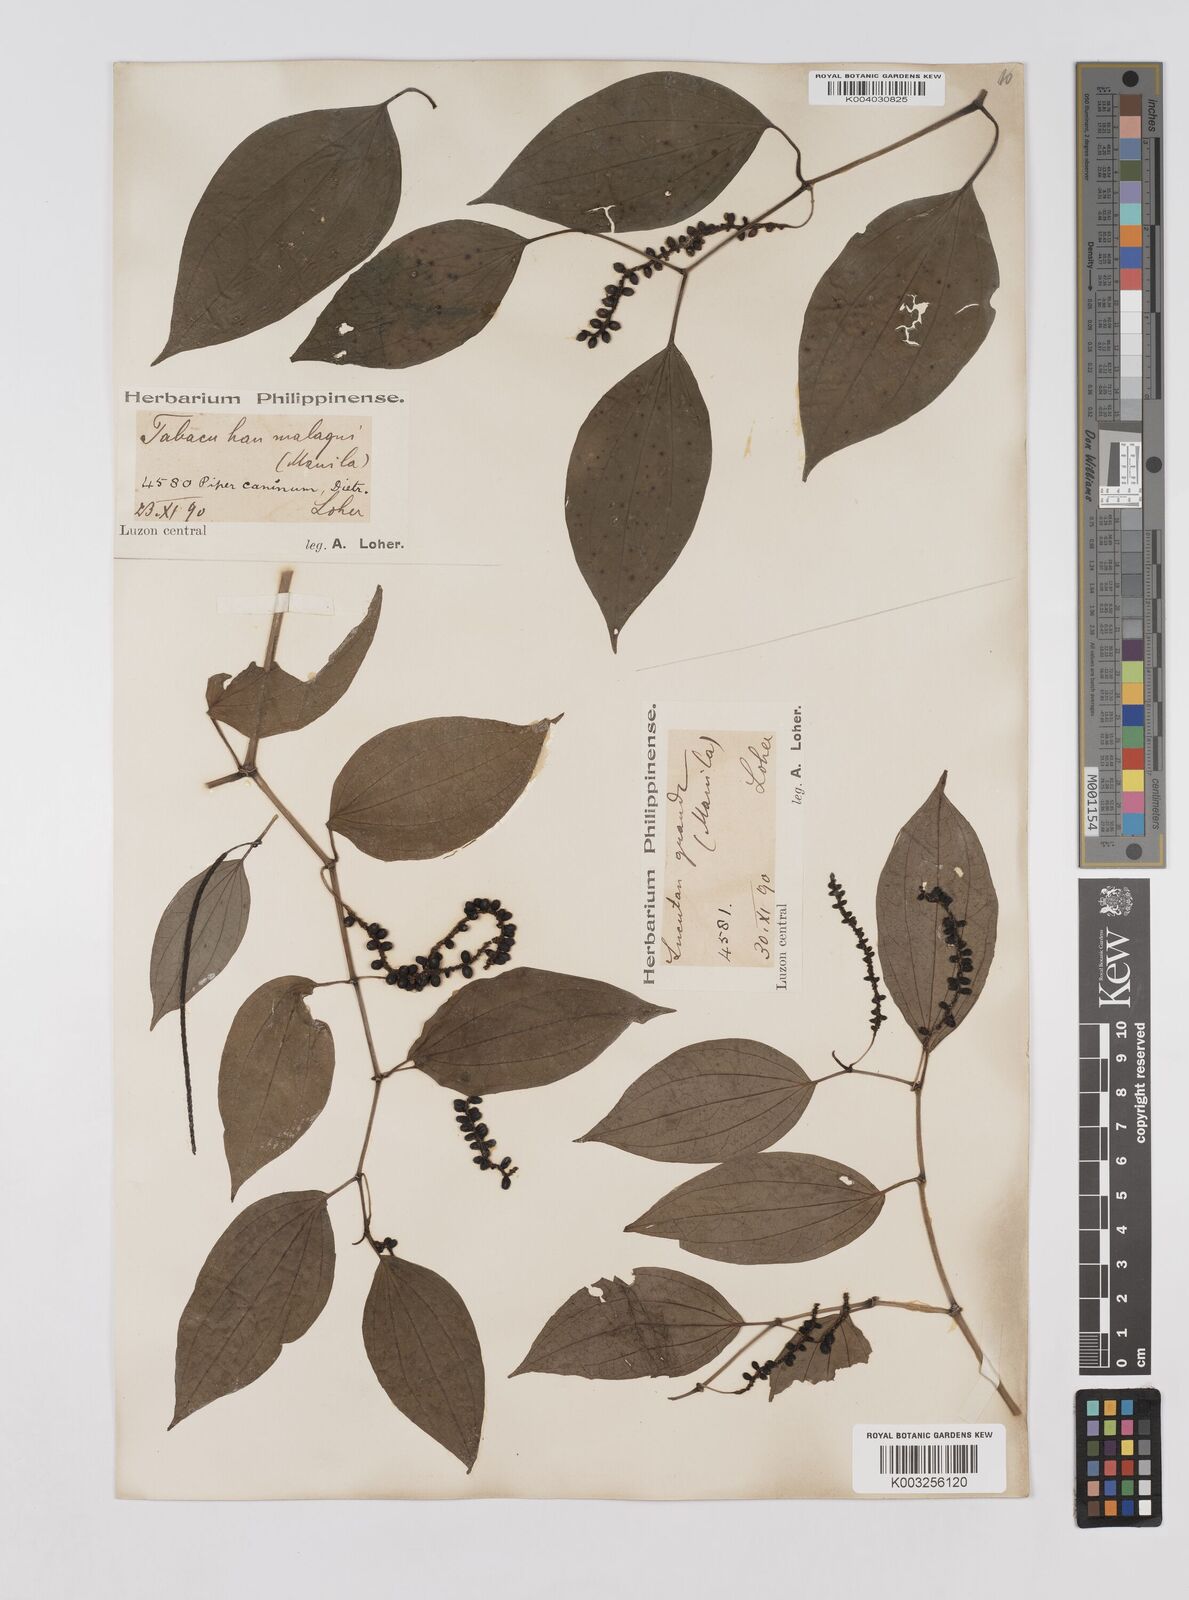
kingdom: Plantae
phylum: Tracheophyta
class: Magnoliopsida
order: Piperales
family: Piperaceae
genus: Piper
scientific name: Piper lanatum
